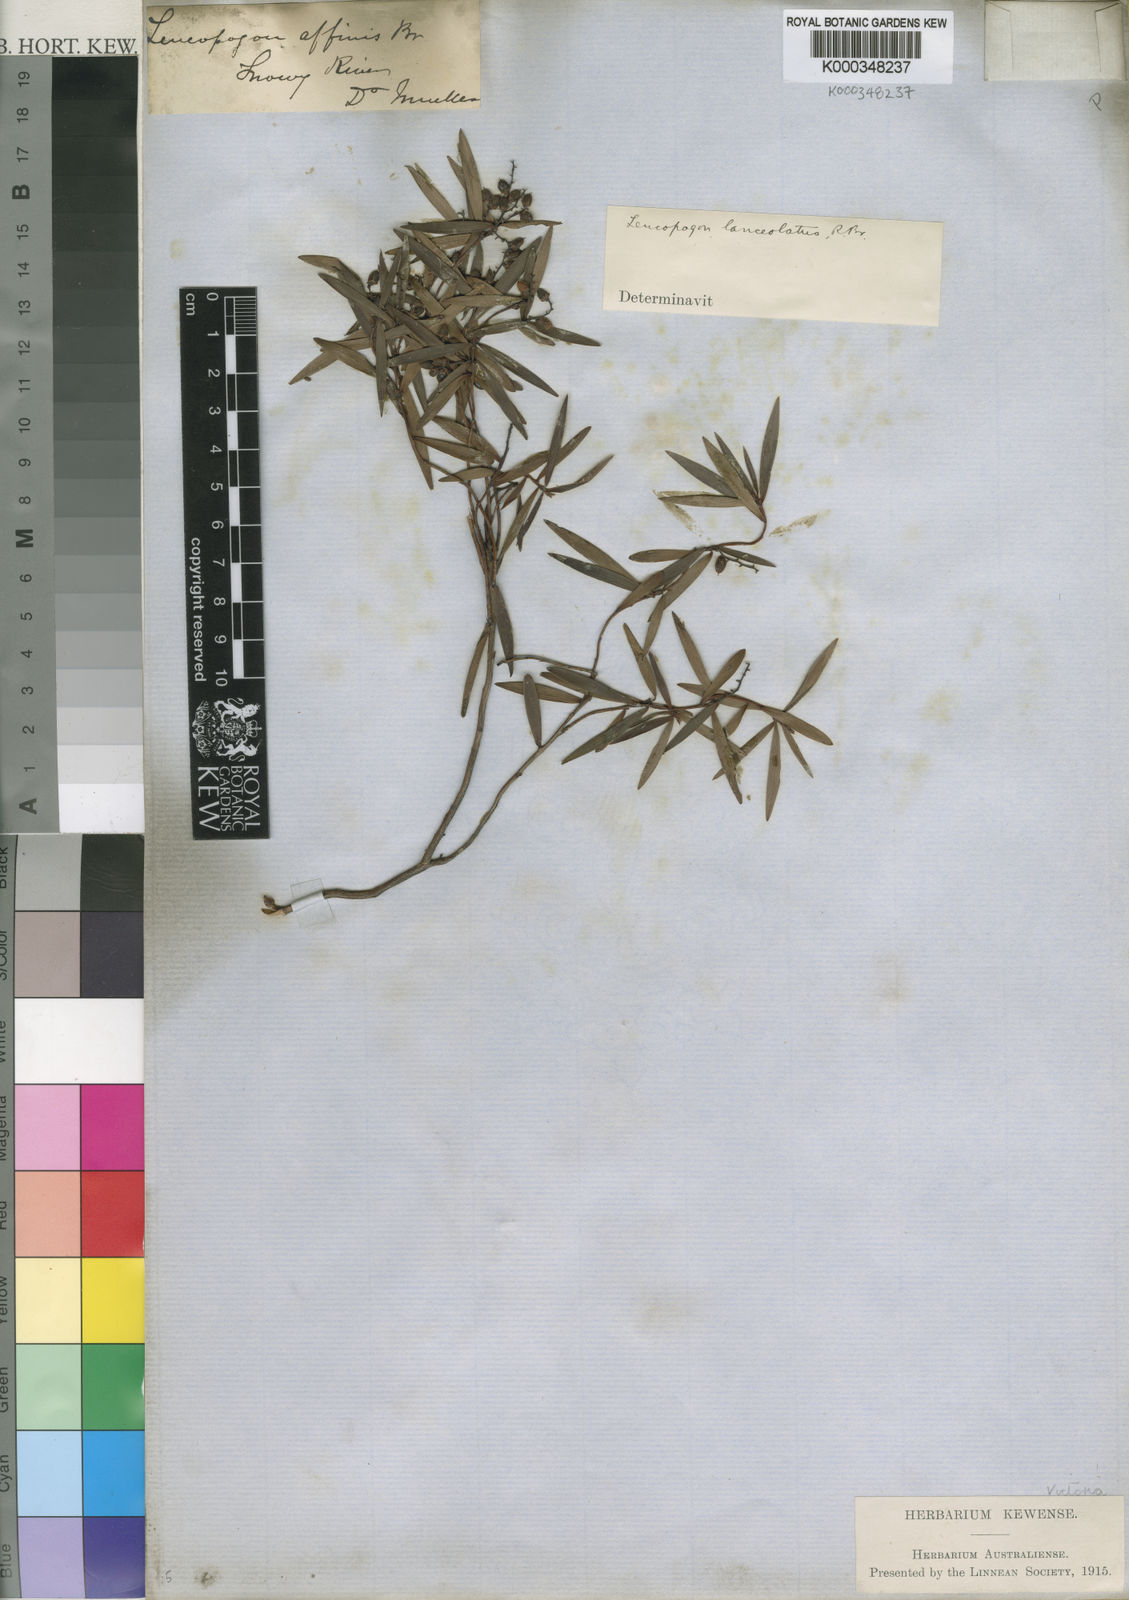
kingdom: Plantae
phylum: Tracheophyta
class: Magnoliopsida
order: Ericales
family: Ericaceae
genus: Leucopogon
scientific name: Leucopogon lanceolatus
